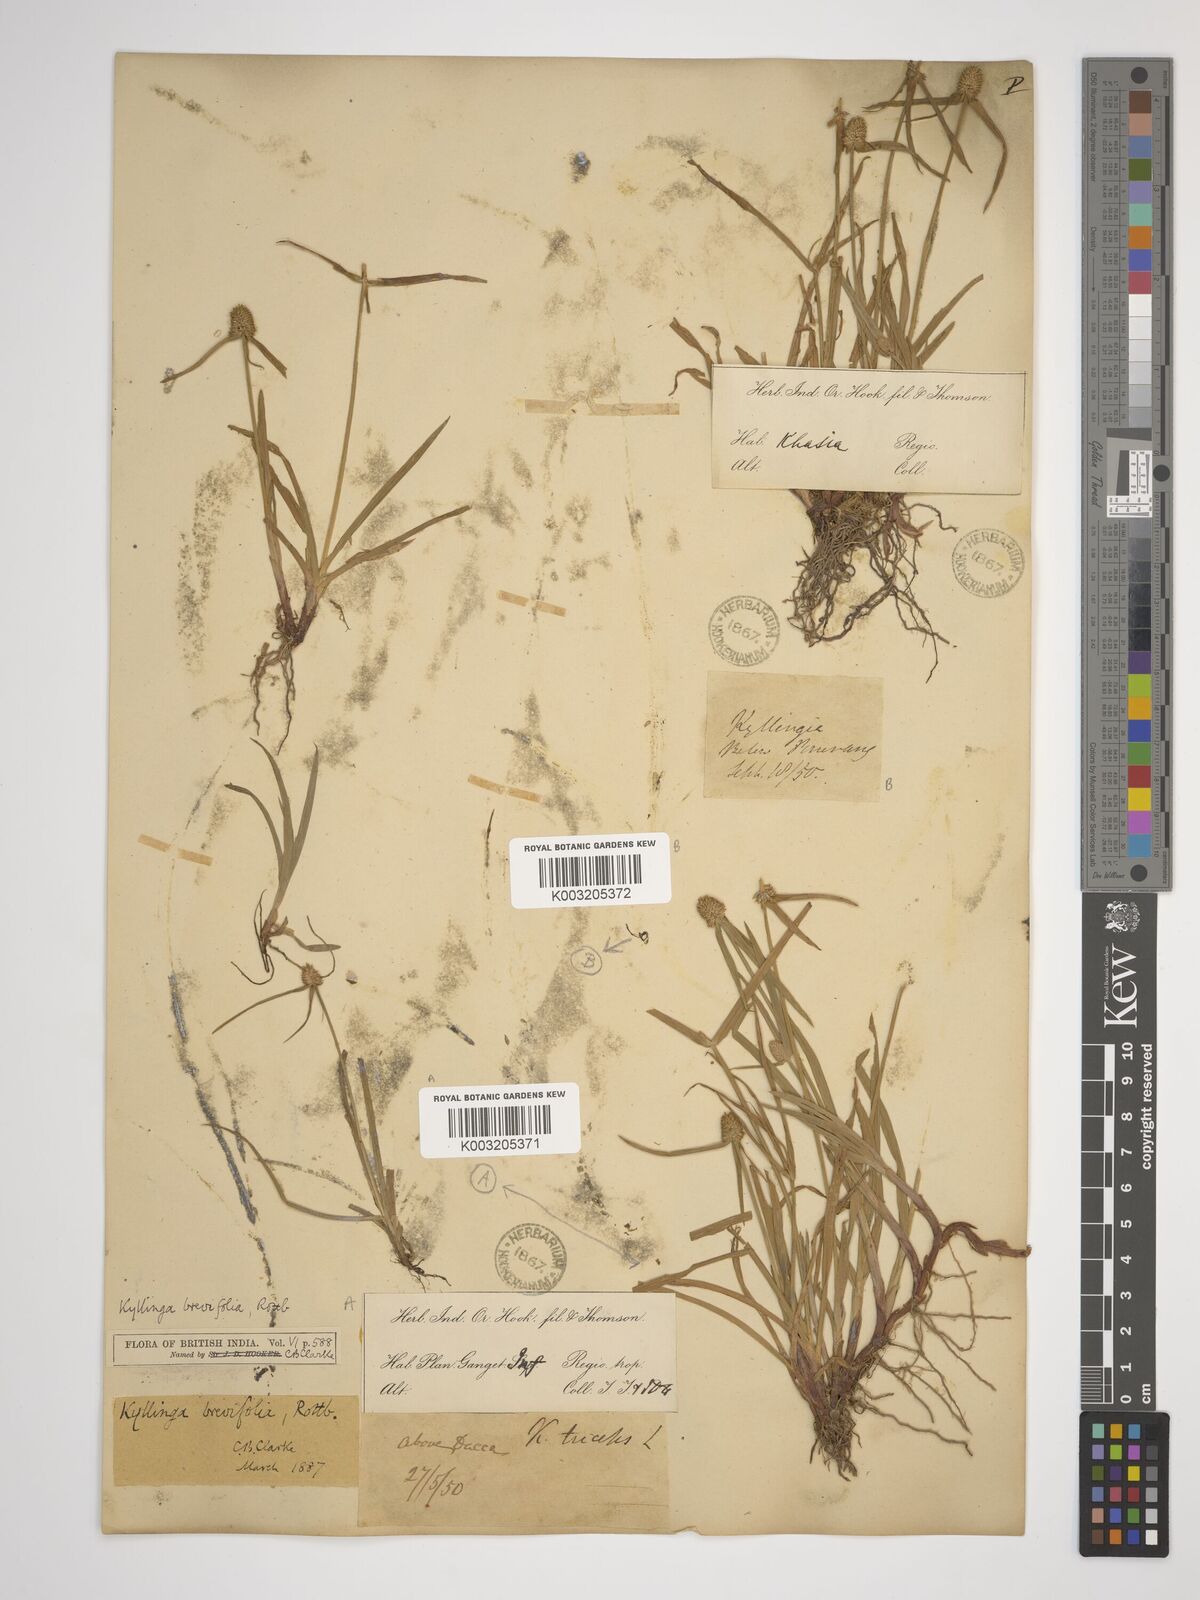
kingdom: Plantae
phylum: Tracheophyta
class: Liliopsida
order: Poales
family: Cyperaceae
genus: Cyperus
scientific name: Cyperus dubius
